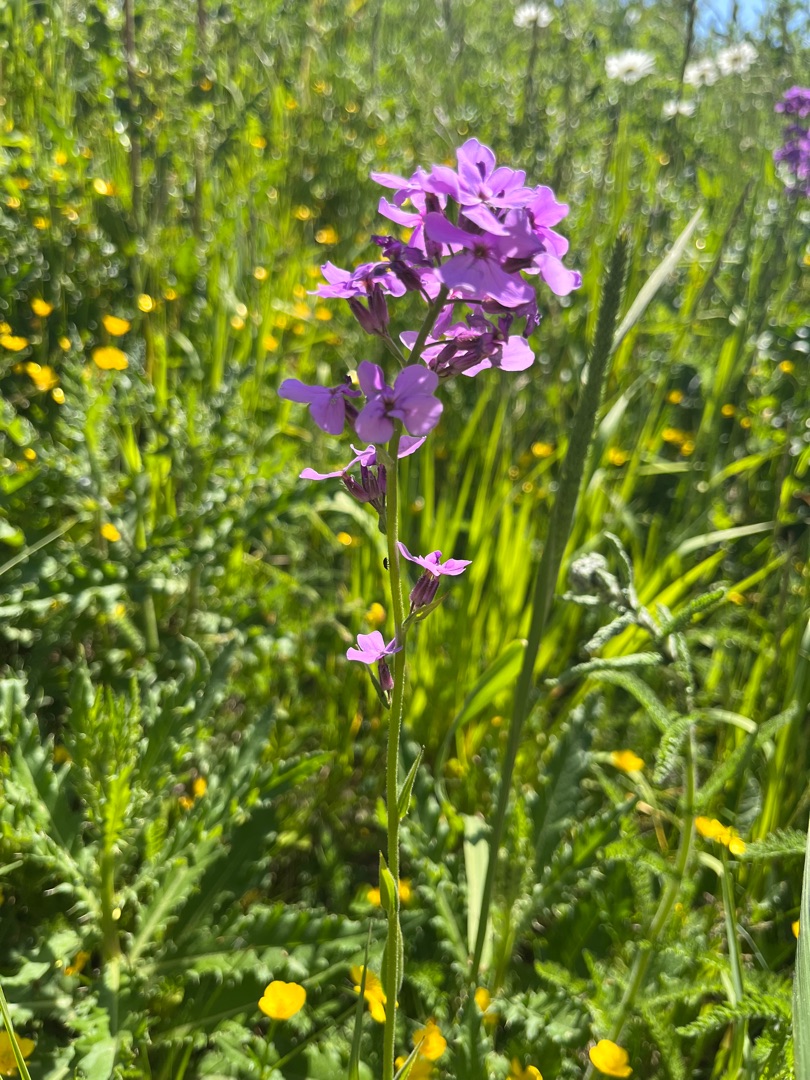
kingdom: Plantae
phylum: Tracheophyta
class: Magnoliopsida
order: Brassicales
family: Brassicaceae
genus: Hesperis
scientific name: Hesperis matronalis
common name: Aftenstjerne
